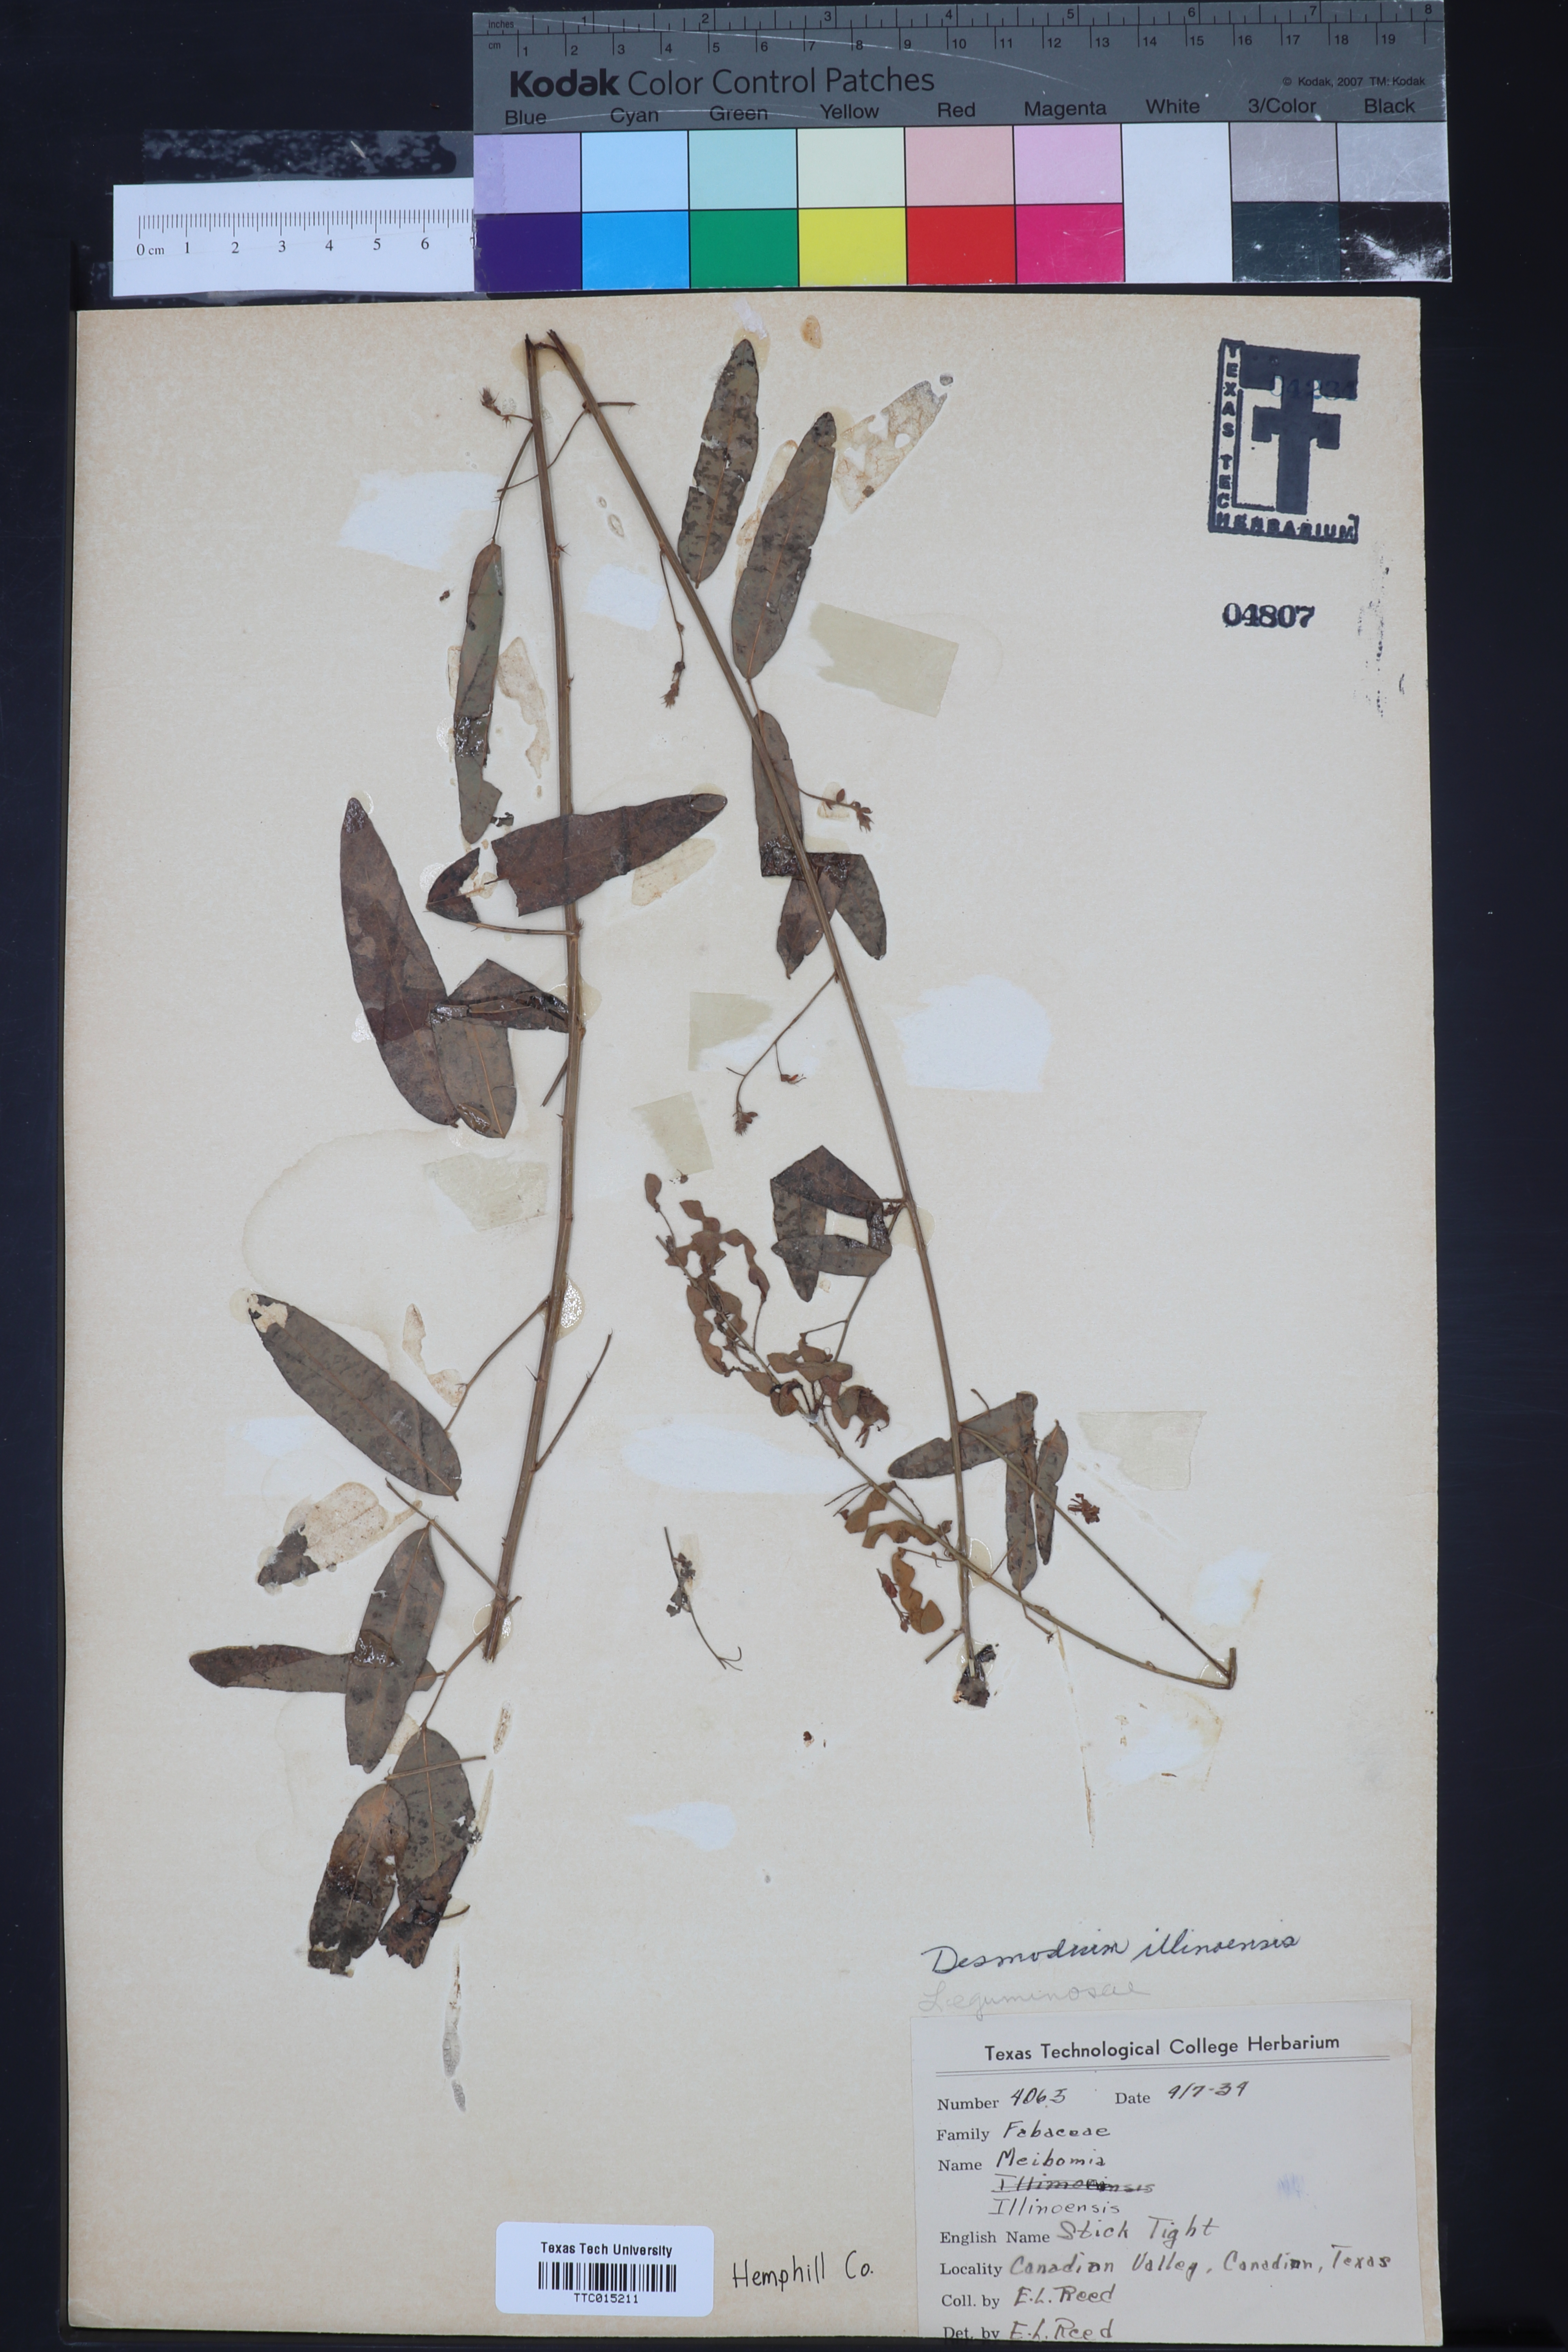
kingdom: Plantae
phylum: Tracheophyta
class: Magnoliopsida
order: Fabales
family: Fabaceae
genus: Desmodium
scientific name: Desmodium perplexum
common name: Perplexed tick trefoil
